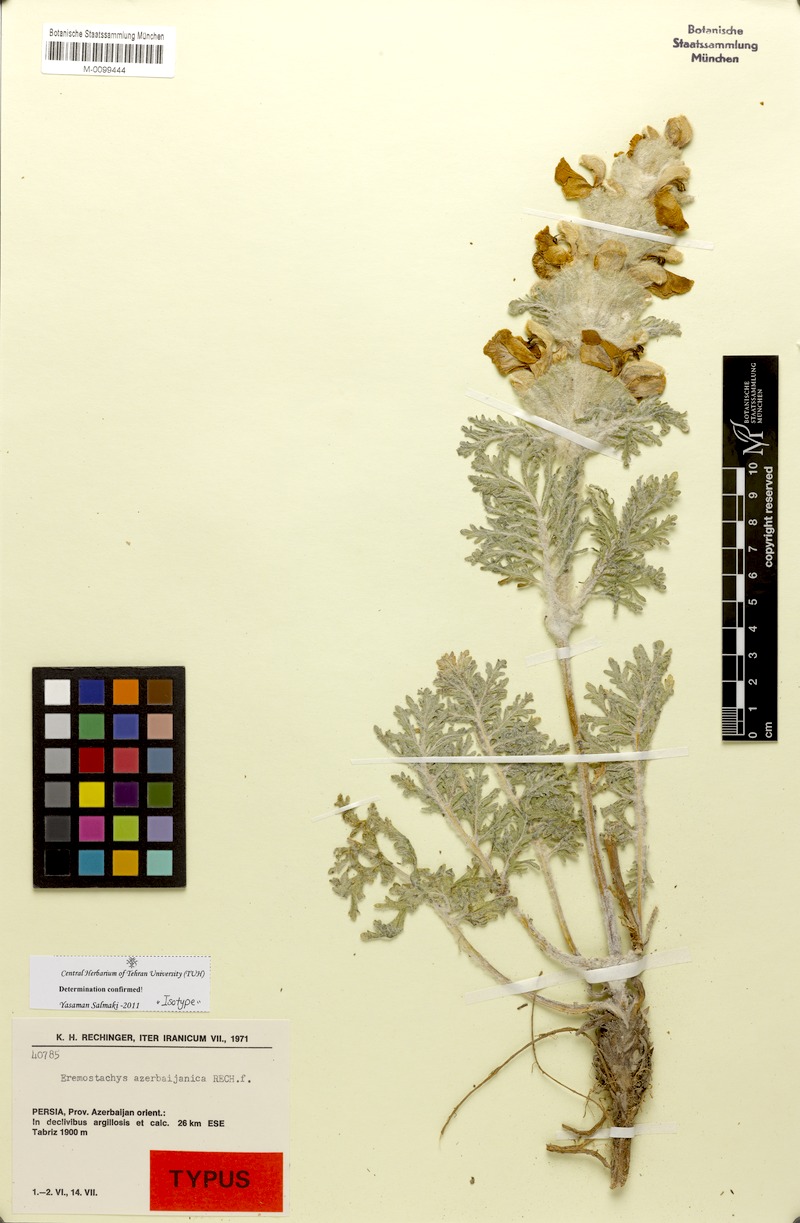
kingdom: Plantae
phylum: Tracheophyta
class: Magnoliopsida
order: Lamiales
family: Lamiaceae
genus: Phlomoides
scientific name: Phlomoides azerbaijanica
